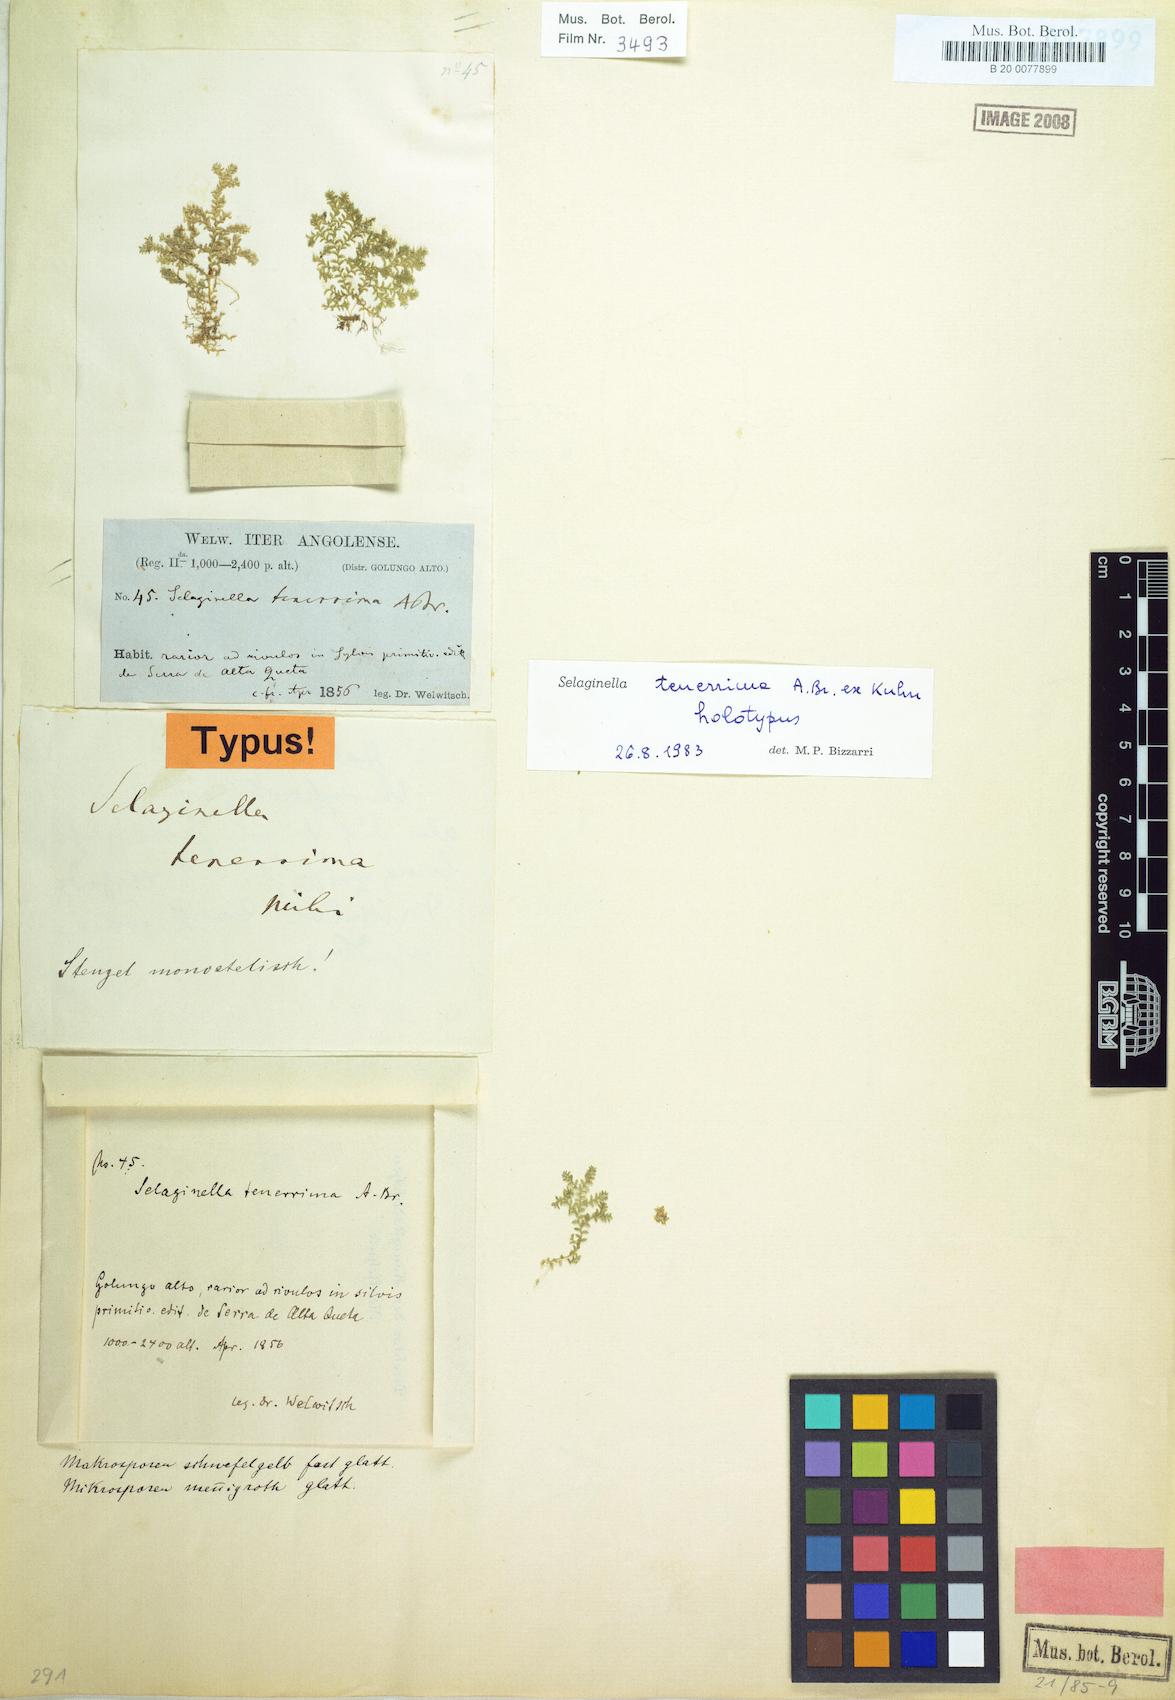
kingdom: Plantae
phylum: Tracheophyta
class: Lycopodiopsida
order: Selaginellales
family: Selaginellaceae
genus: Selaginella
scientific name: Selaginella tenerrima
